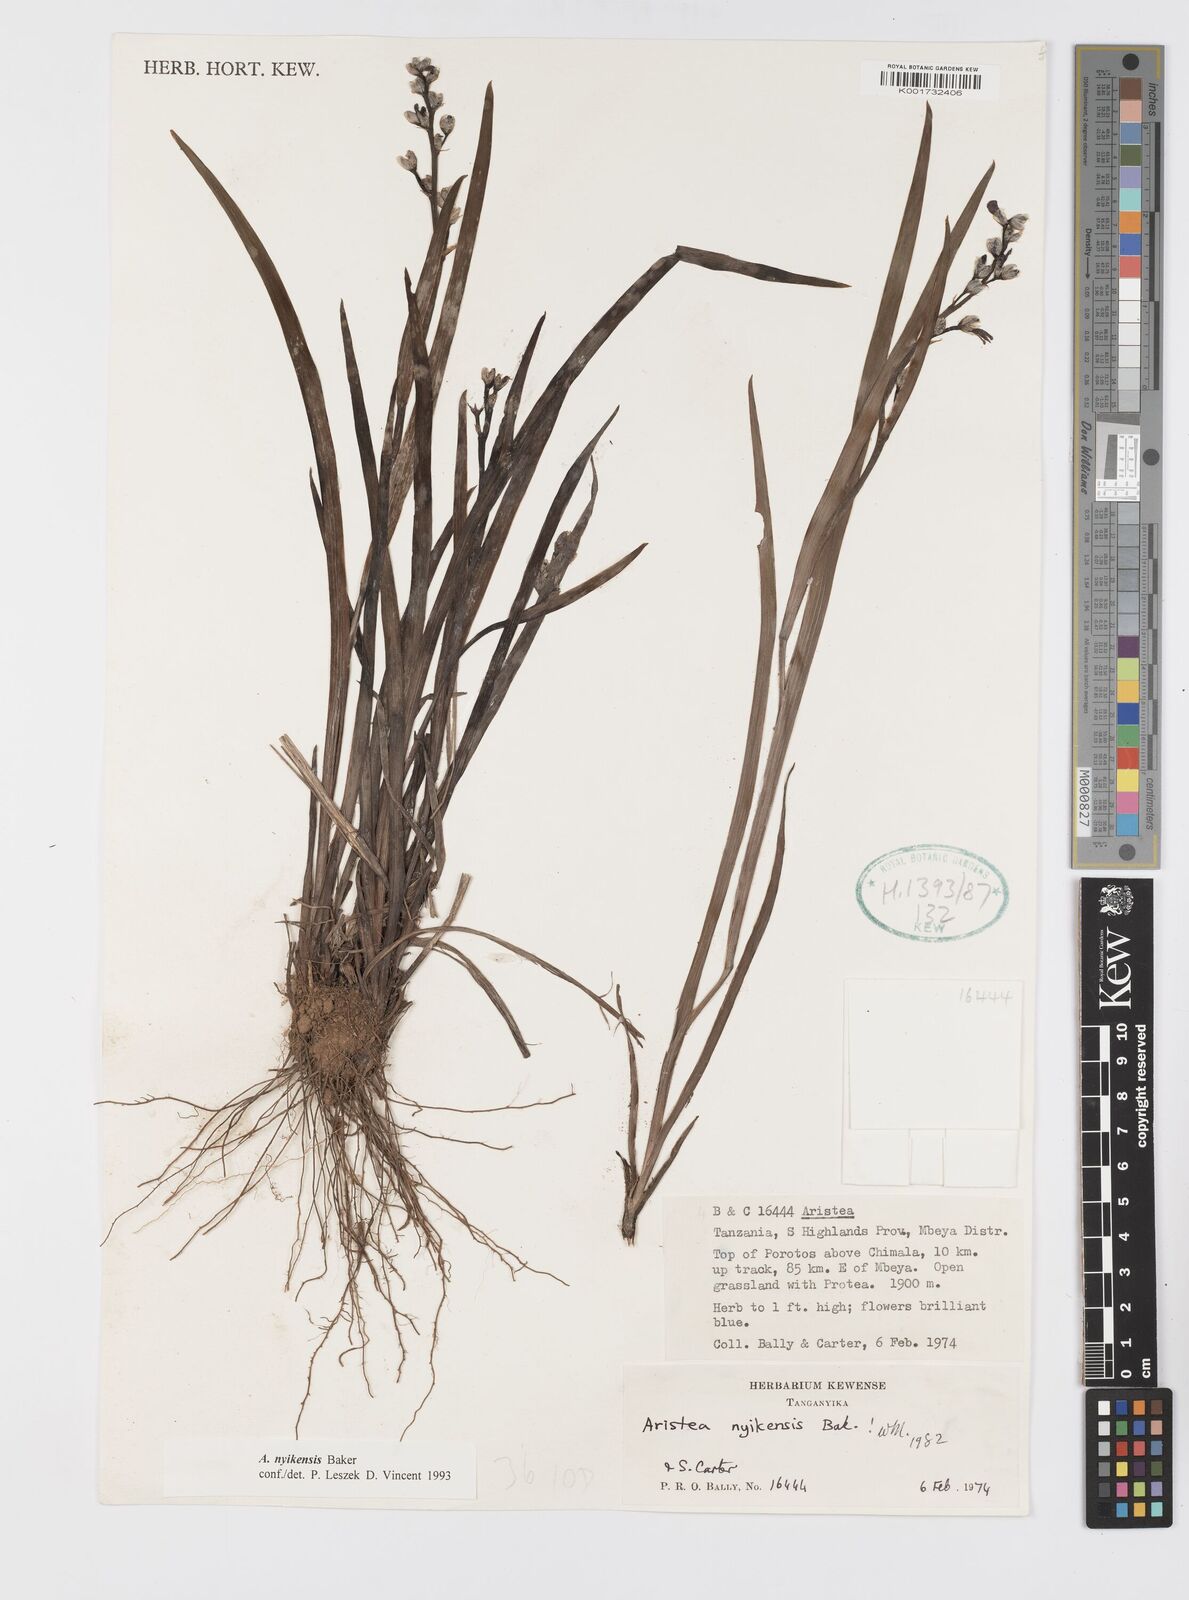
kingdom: Plantae
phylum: Tracheophyta
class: Liliopsida
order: Asparagales
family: Iridaceae
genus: Aristea
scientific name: Aristea nyikensis
